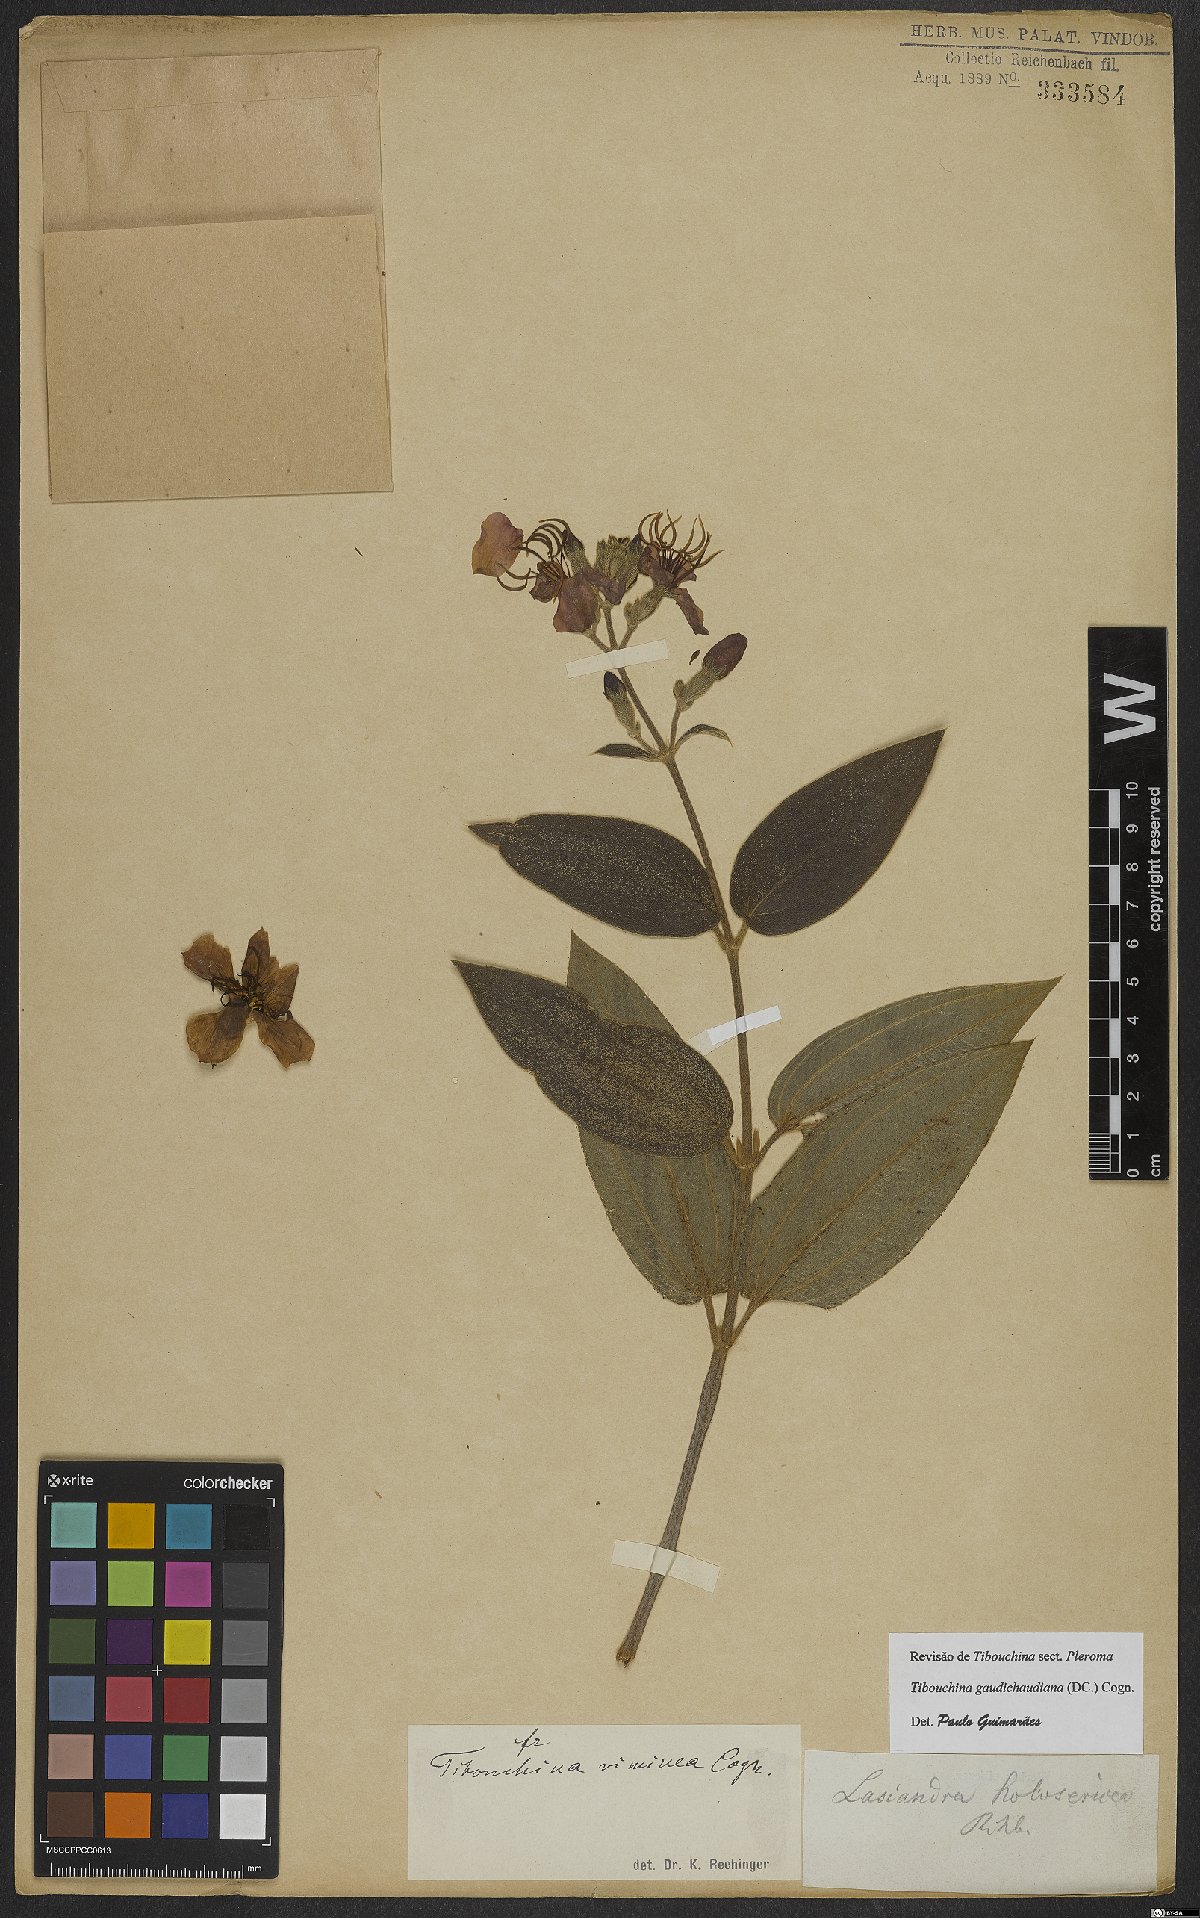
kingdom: Plantae
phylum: Tracheophyta
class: Magnoliopsida
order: Myrtales
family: Melastomataceae
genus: Pleroma
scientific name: Pleroma gaudichaudianum
